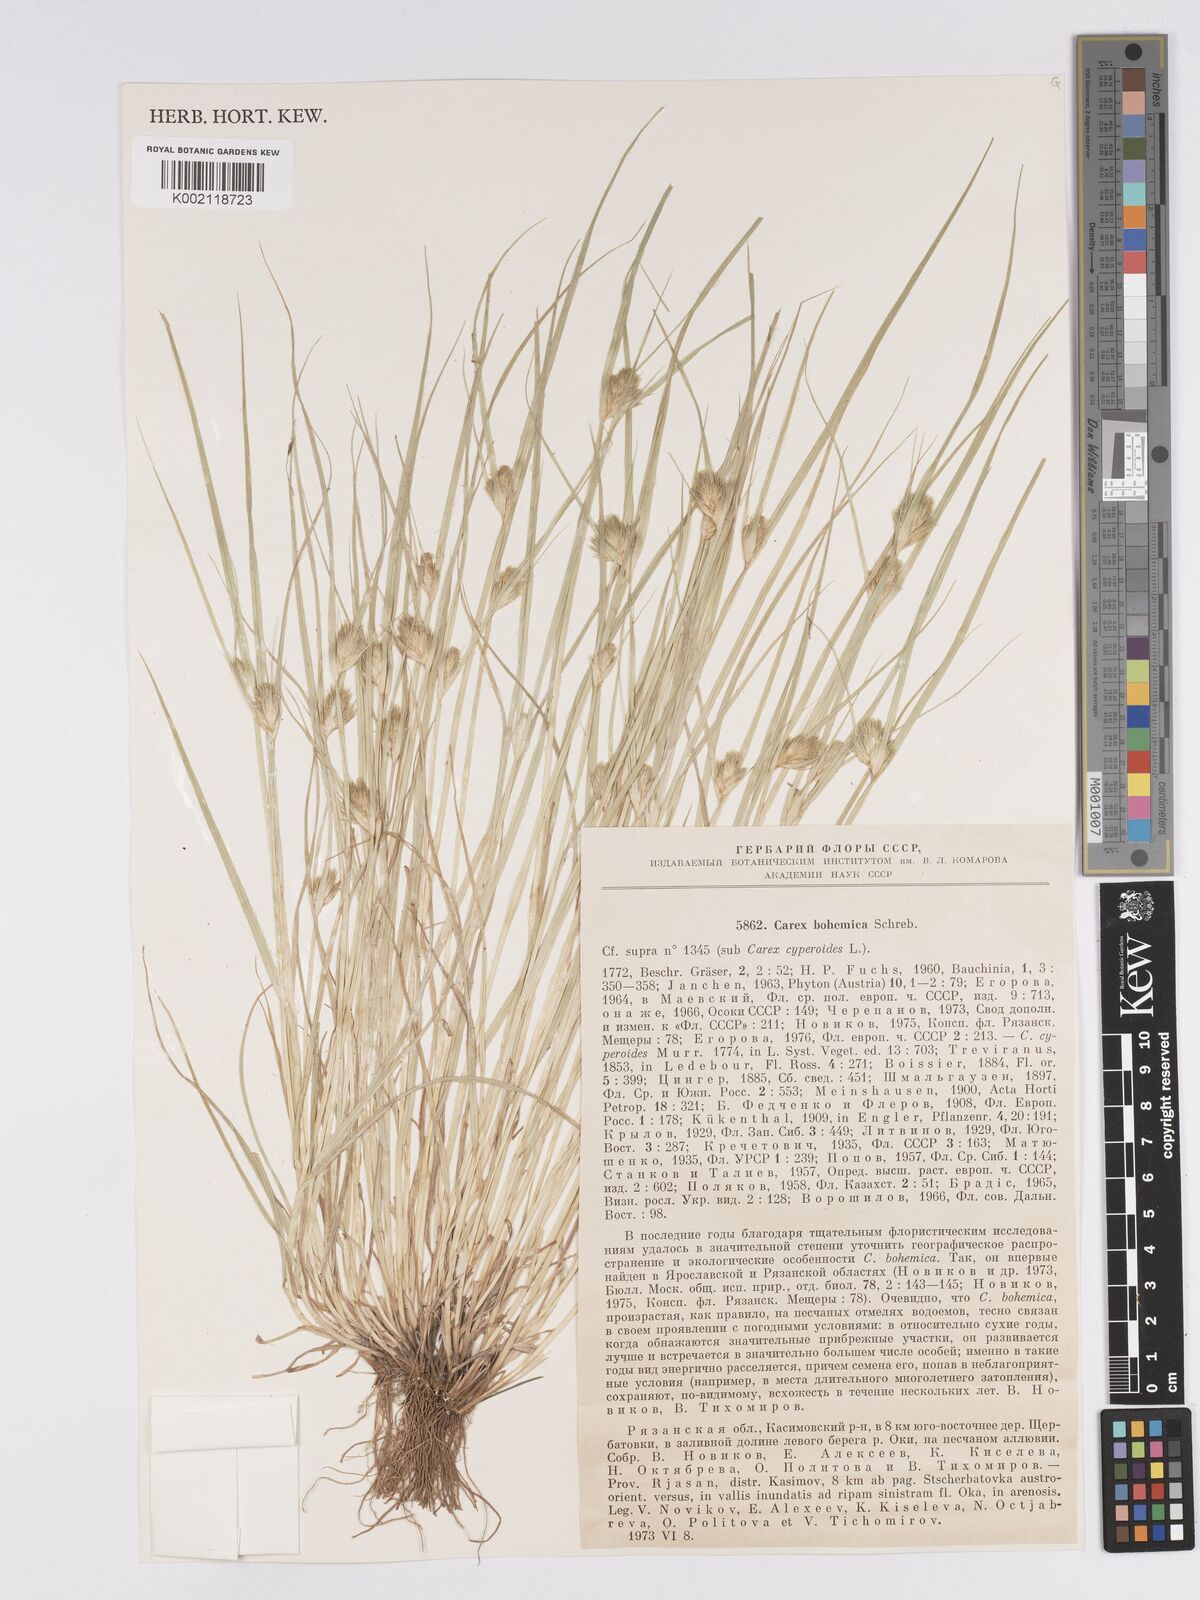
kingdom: Plantae
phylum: Tracheophyta
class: Liliopsida
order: Poales
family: Cyperaceae
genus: Carex
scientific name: Carex bohemica
